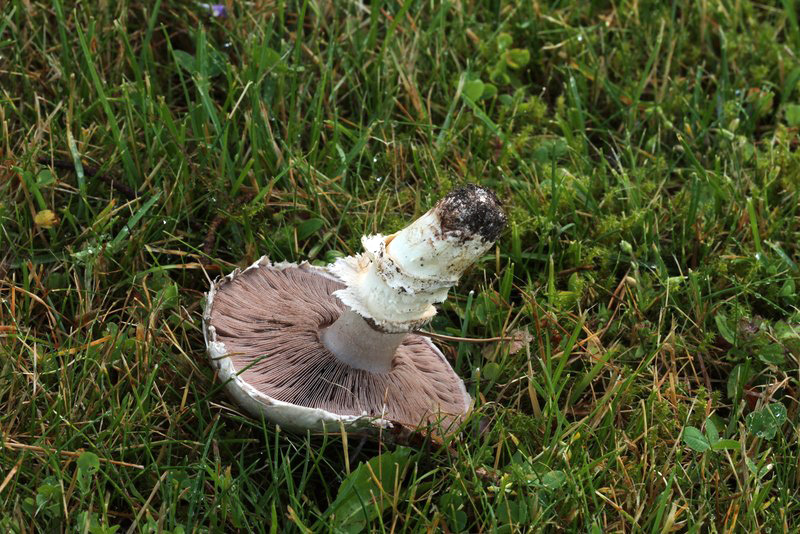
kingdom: Fungi
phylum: Basidiomycota
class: Agaricomycetes
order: Agaricales
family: Agaricaceae
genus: Agaricus
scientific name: Agaricus bitorquis
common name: vej-champignon
